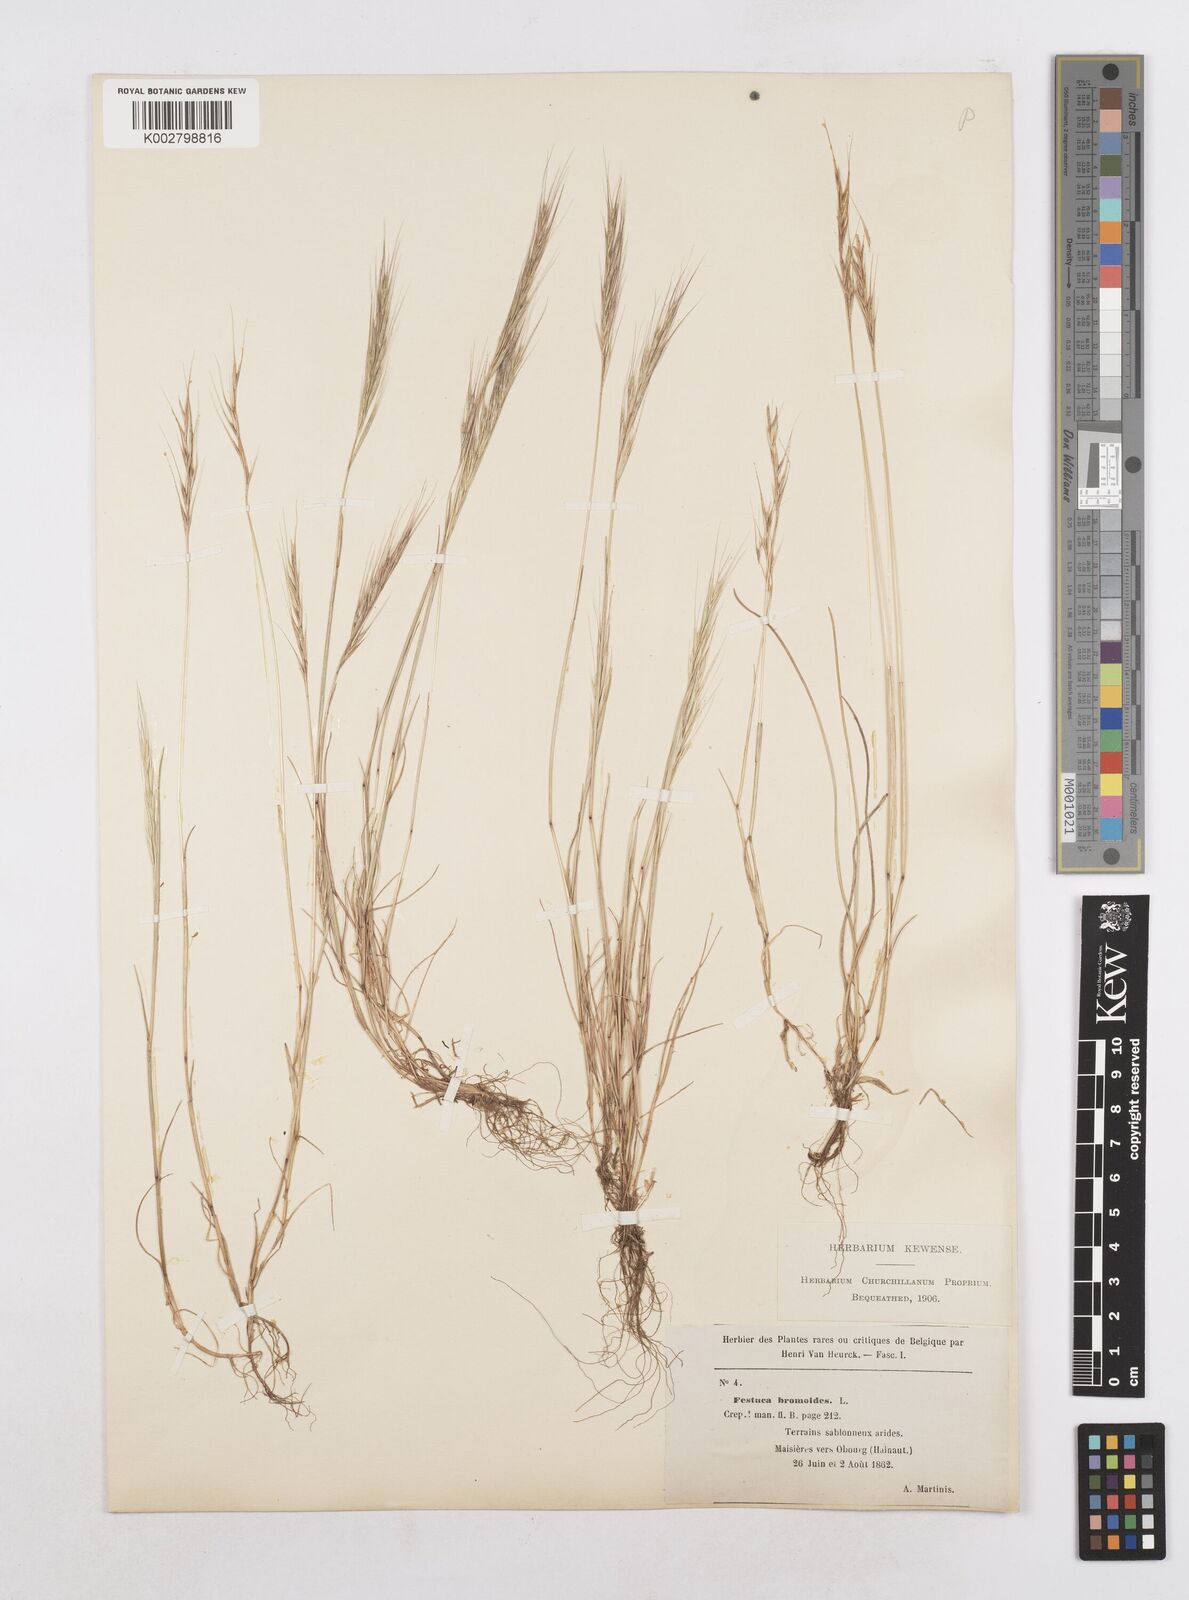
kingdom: Plantae
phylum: Tracheophyta
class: Liliopsida
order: Poales
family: Poaceae
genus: Festuca
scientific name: Festuca membranacea
